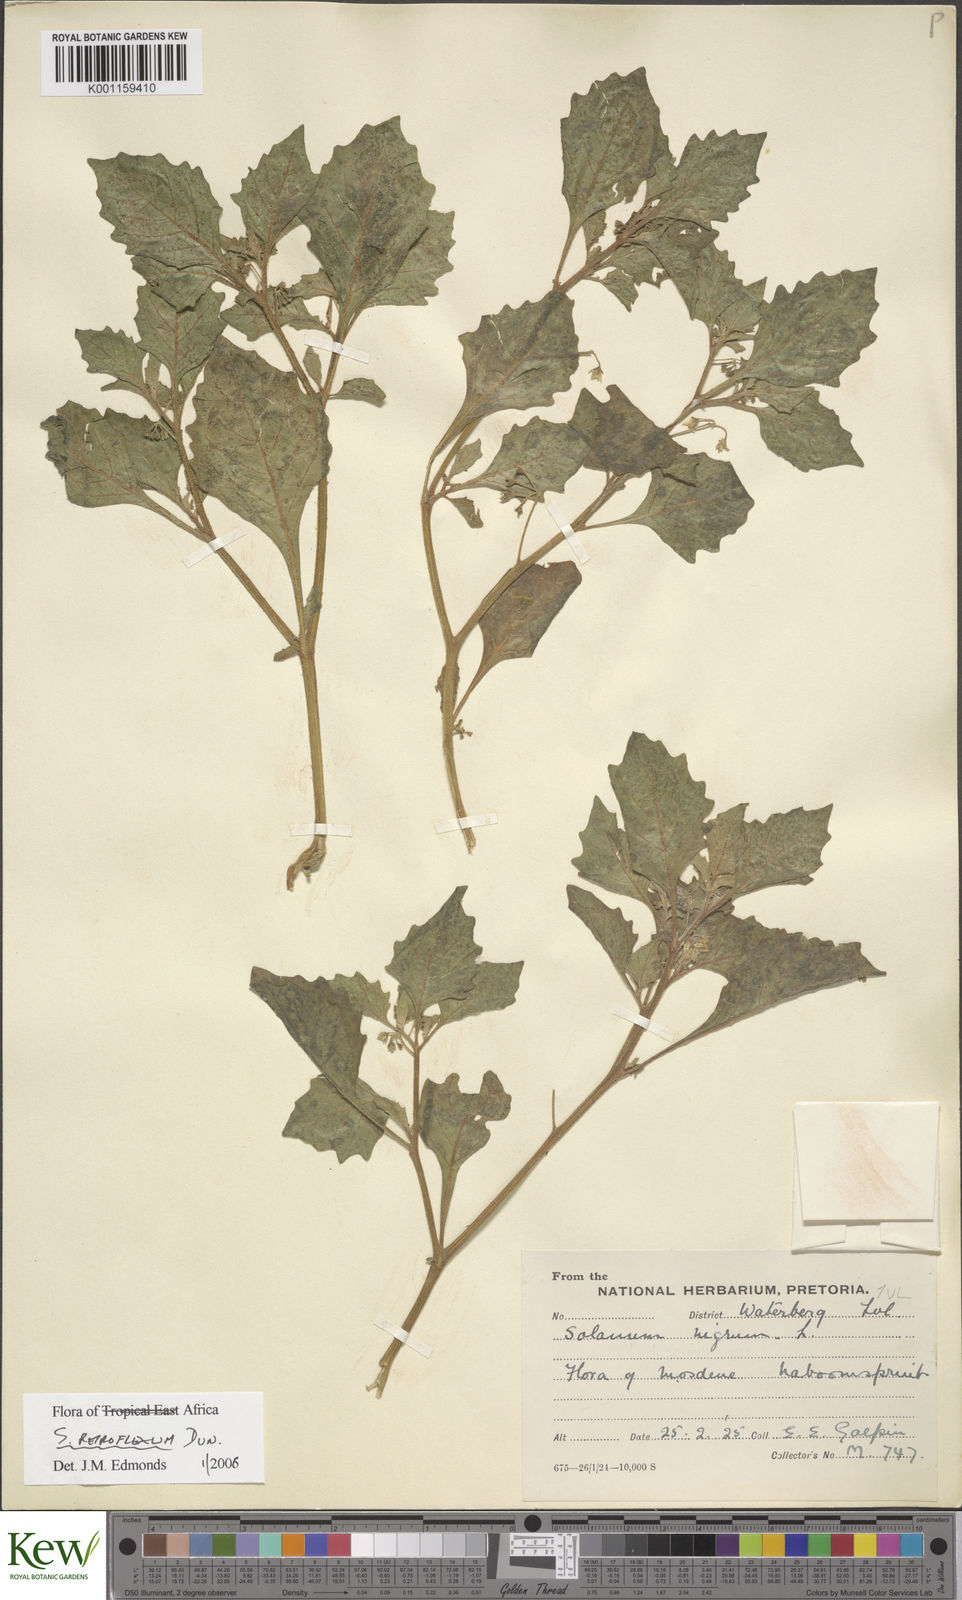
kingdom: Plantae
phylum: Tracheophyta
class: Magnoliopsida
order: Solanales
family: Solanaceae
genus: Solanum
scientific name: Solanum retroflexum
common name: Wonderberry
